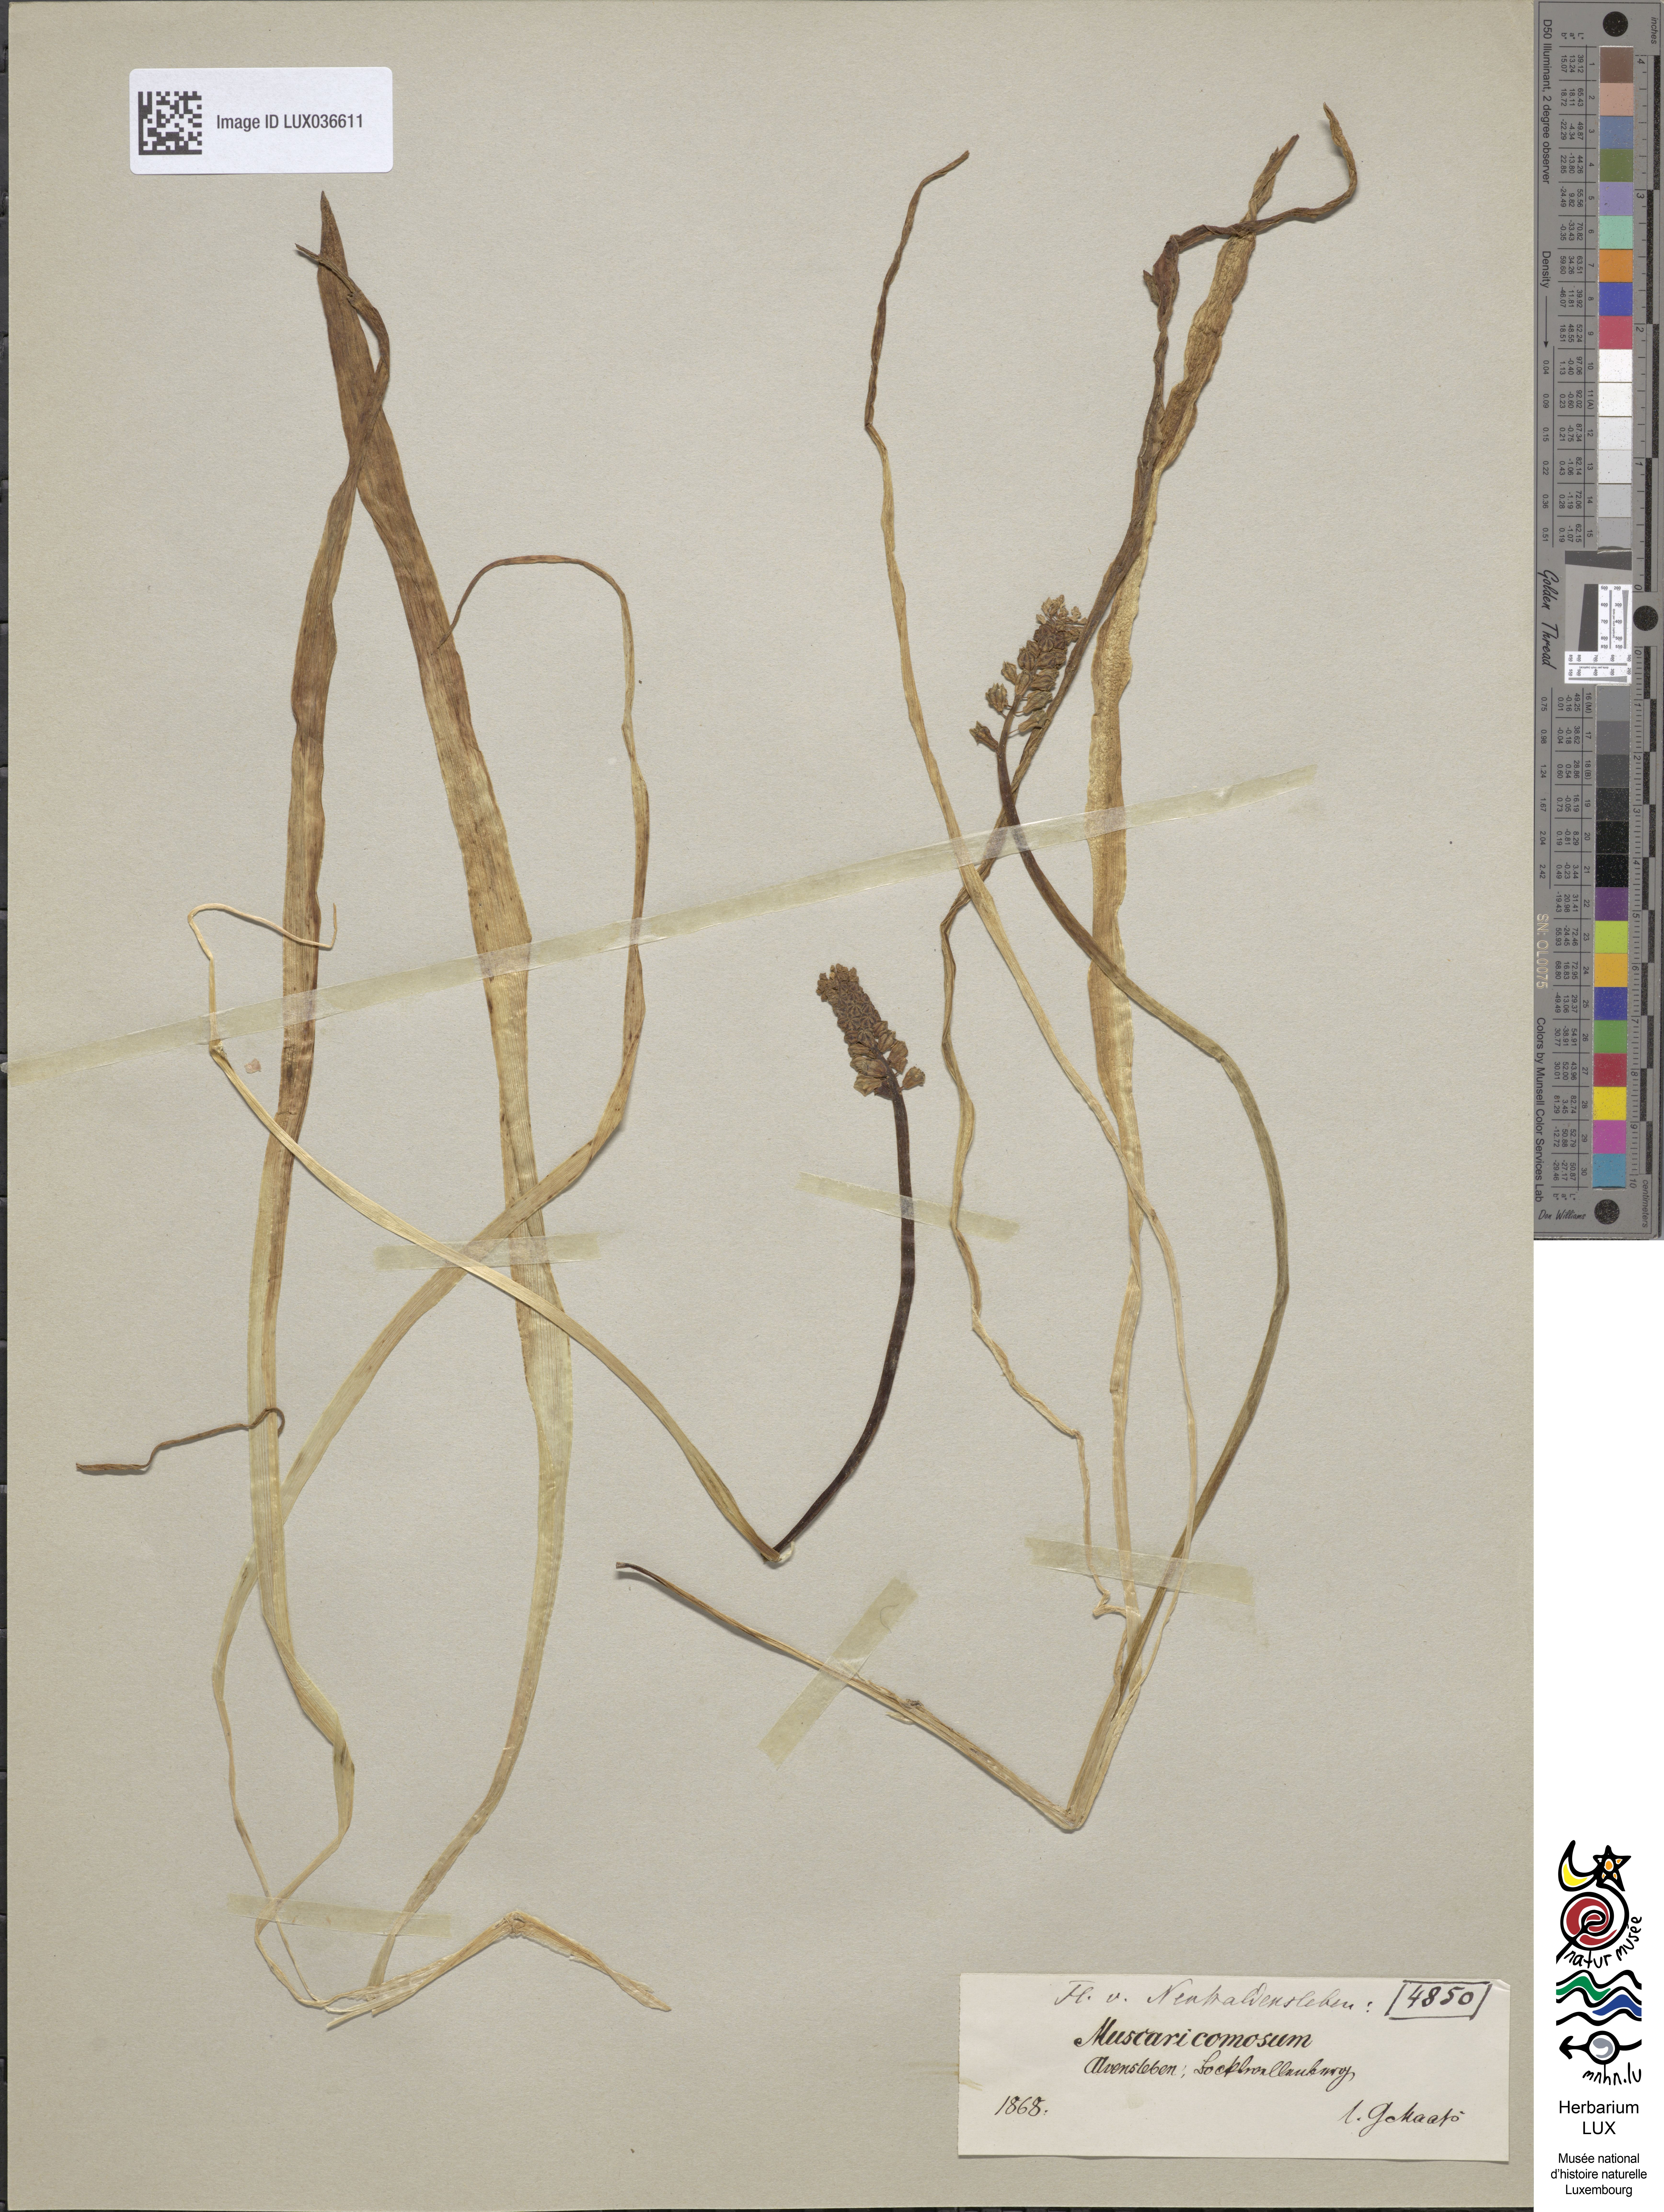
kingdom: Plantae
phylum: Tracheophyta
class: Liliopsida
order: Asparagales
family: Asparagaceae
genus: Muscari
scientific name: Muscari comosum
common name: Tassel hyacinth
